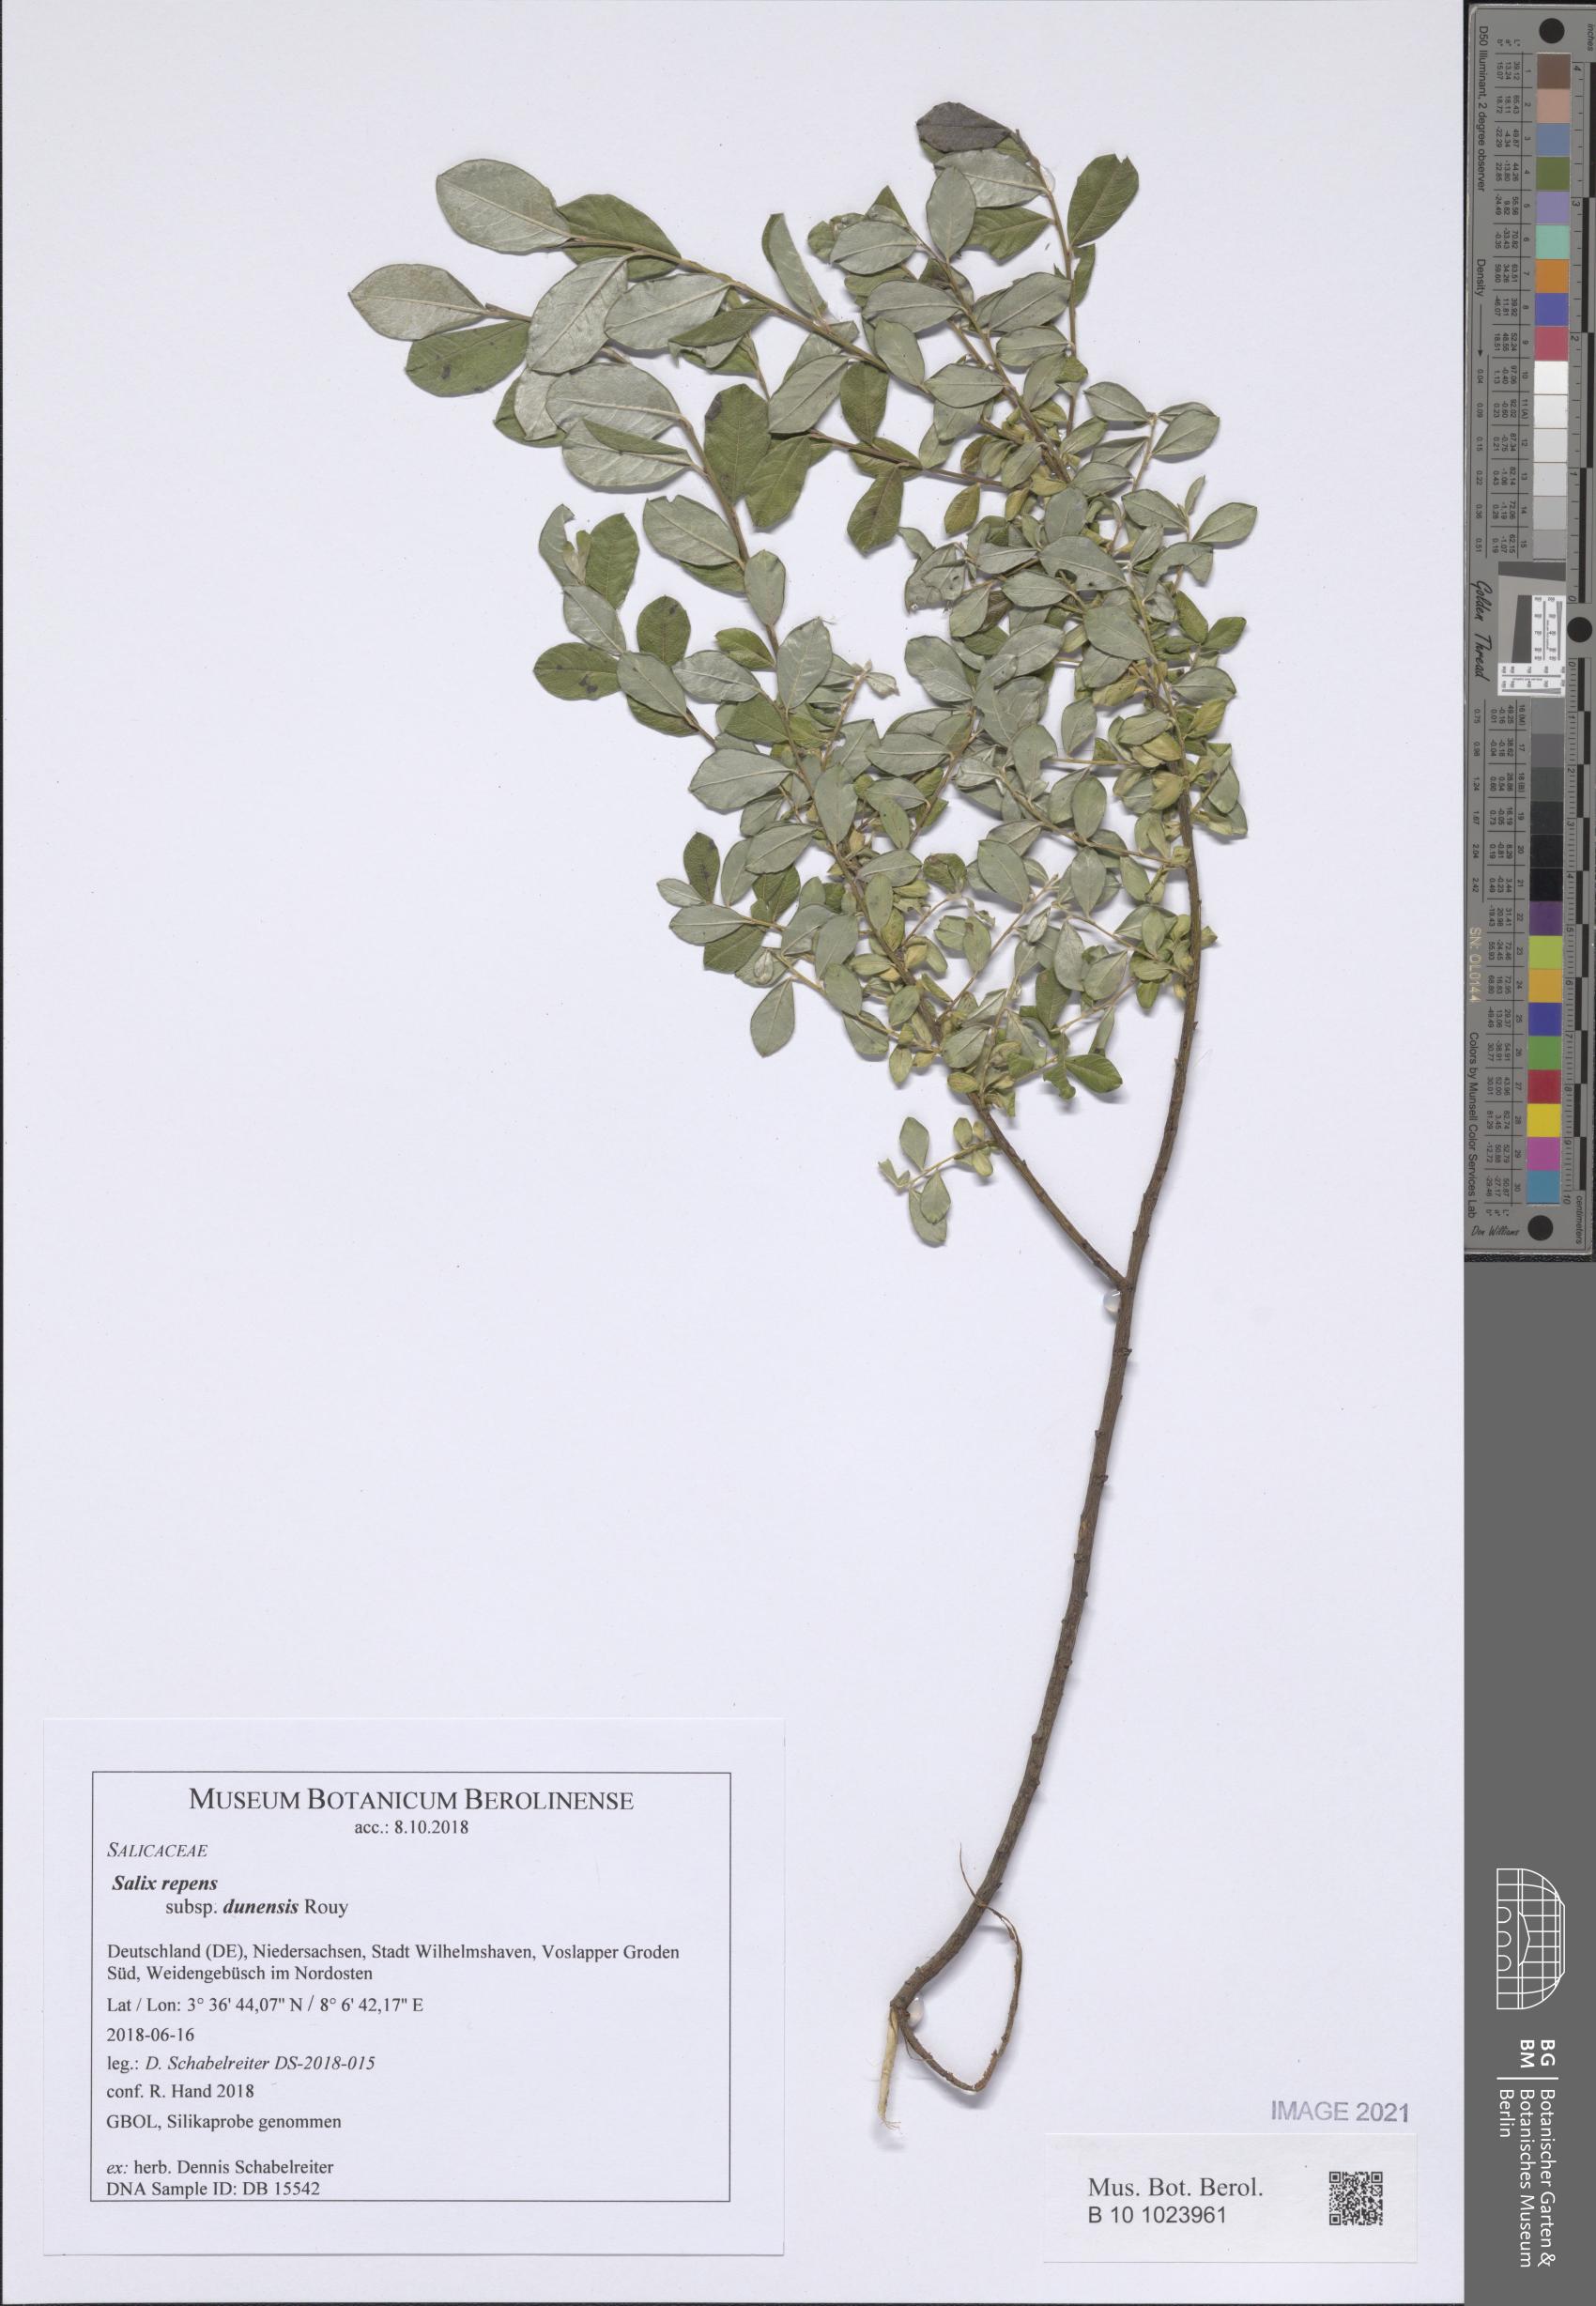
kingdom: Plantae
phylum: Tracheophyta
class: Magnoliopsida
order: Malpighiales
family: Salicaceae
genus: Salix
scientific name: Salix repens
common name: Creeping willow
